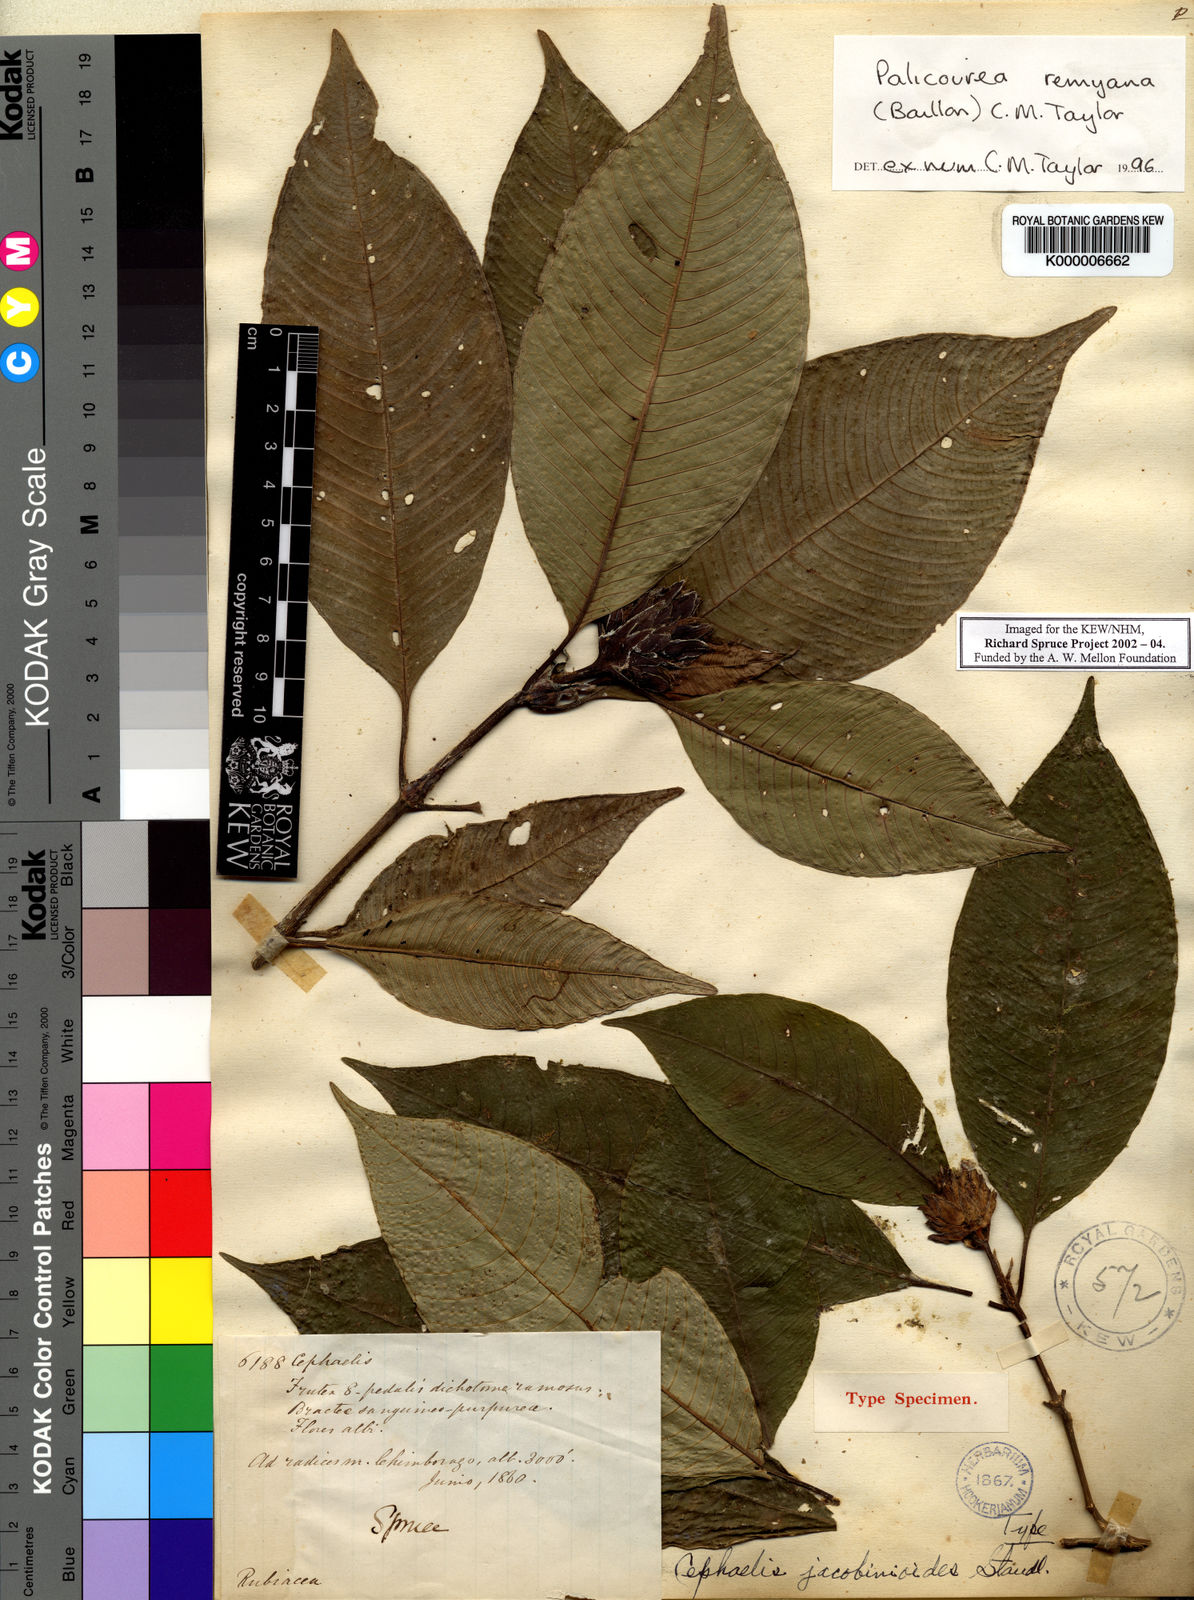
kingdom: Plantae
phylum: Tracheophyta
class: Magnoliopsida
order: Gentianales
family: Rubiaceae
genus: Palicourea
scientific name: Palicourea remyana
